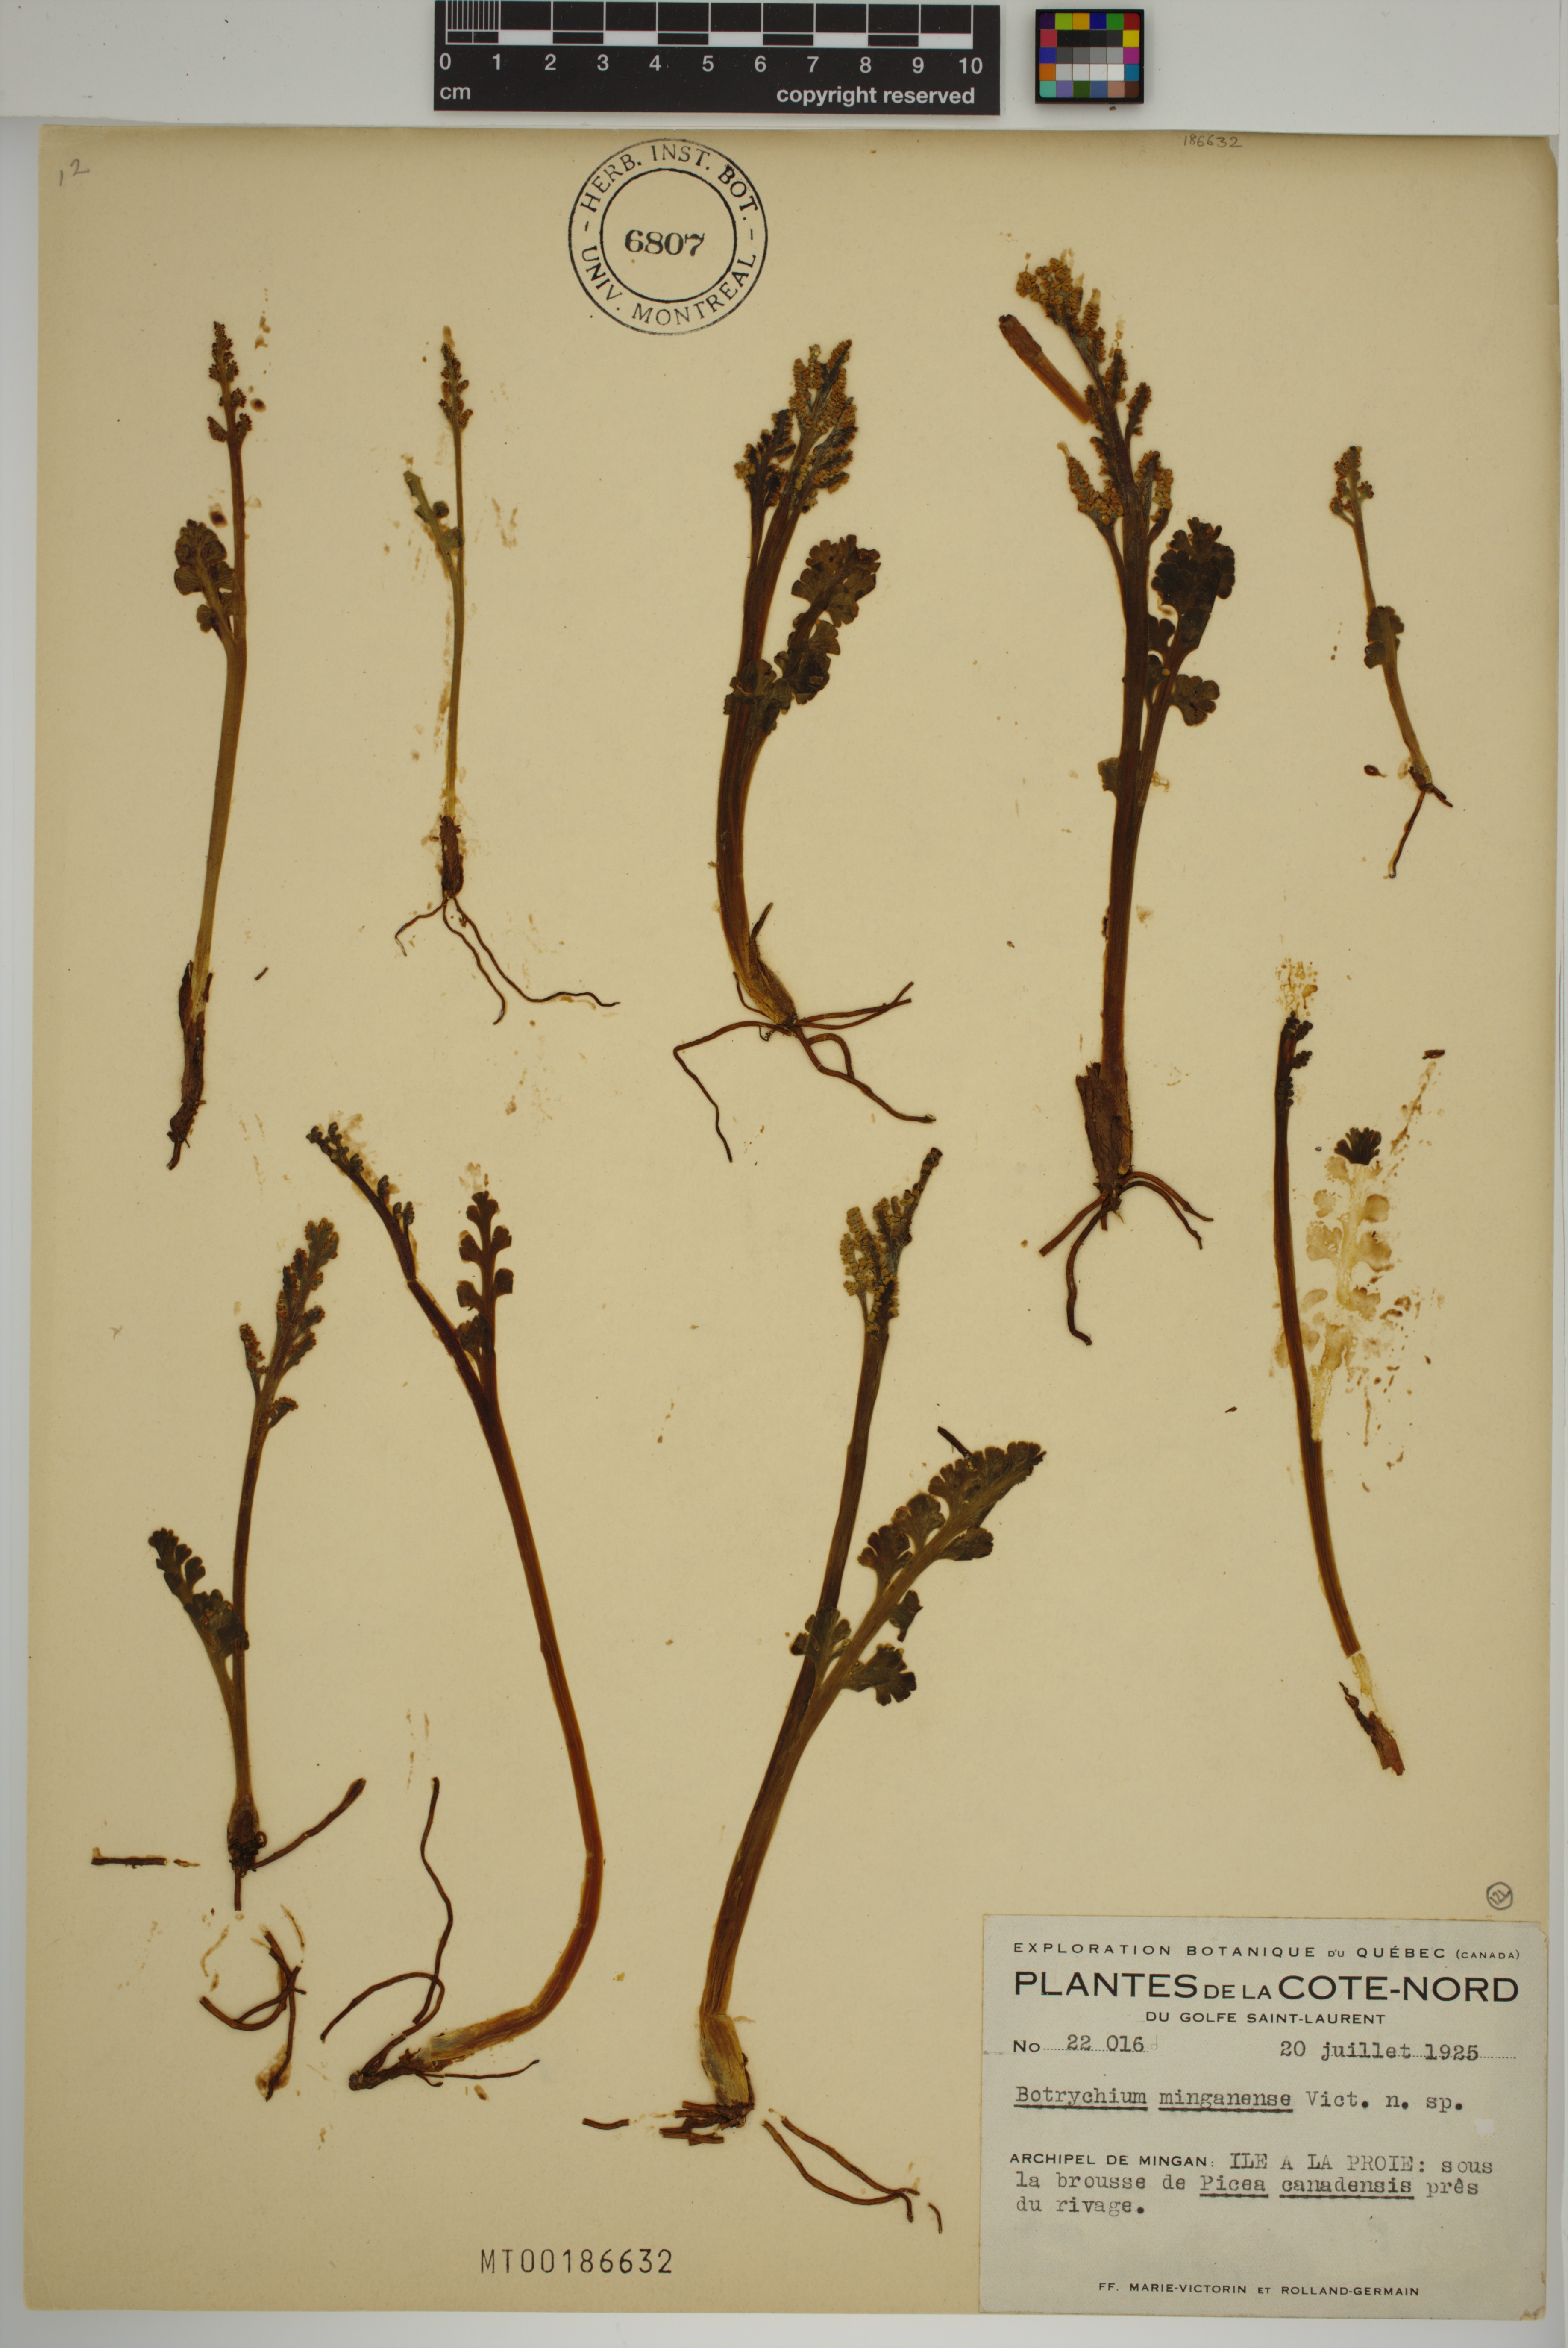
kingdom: Plantae
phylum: Tracheophyta
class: Polypodiopsida
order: Ophioglossales
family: Ophioglossaceae
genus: Botrychium
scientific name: Botrychium minganense
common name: Mingan grapefern
